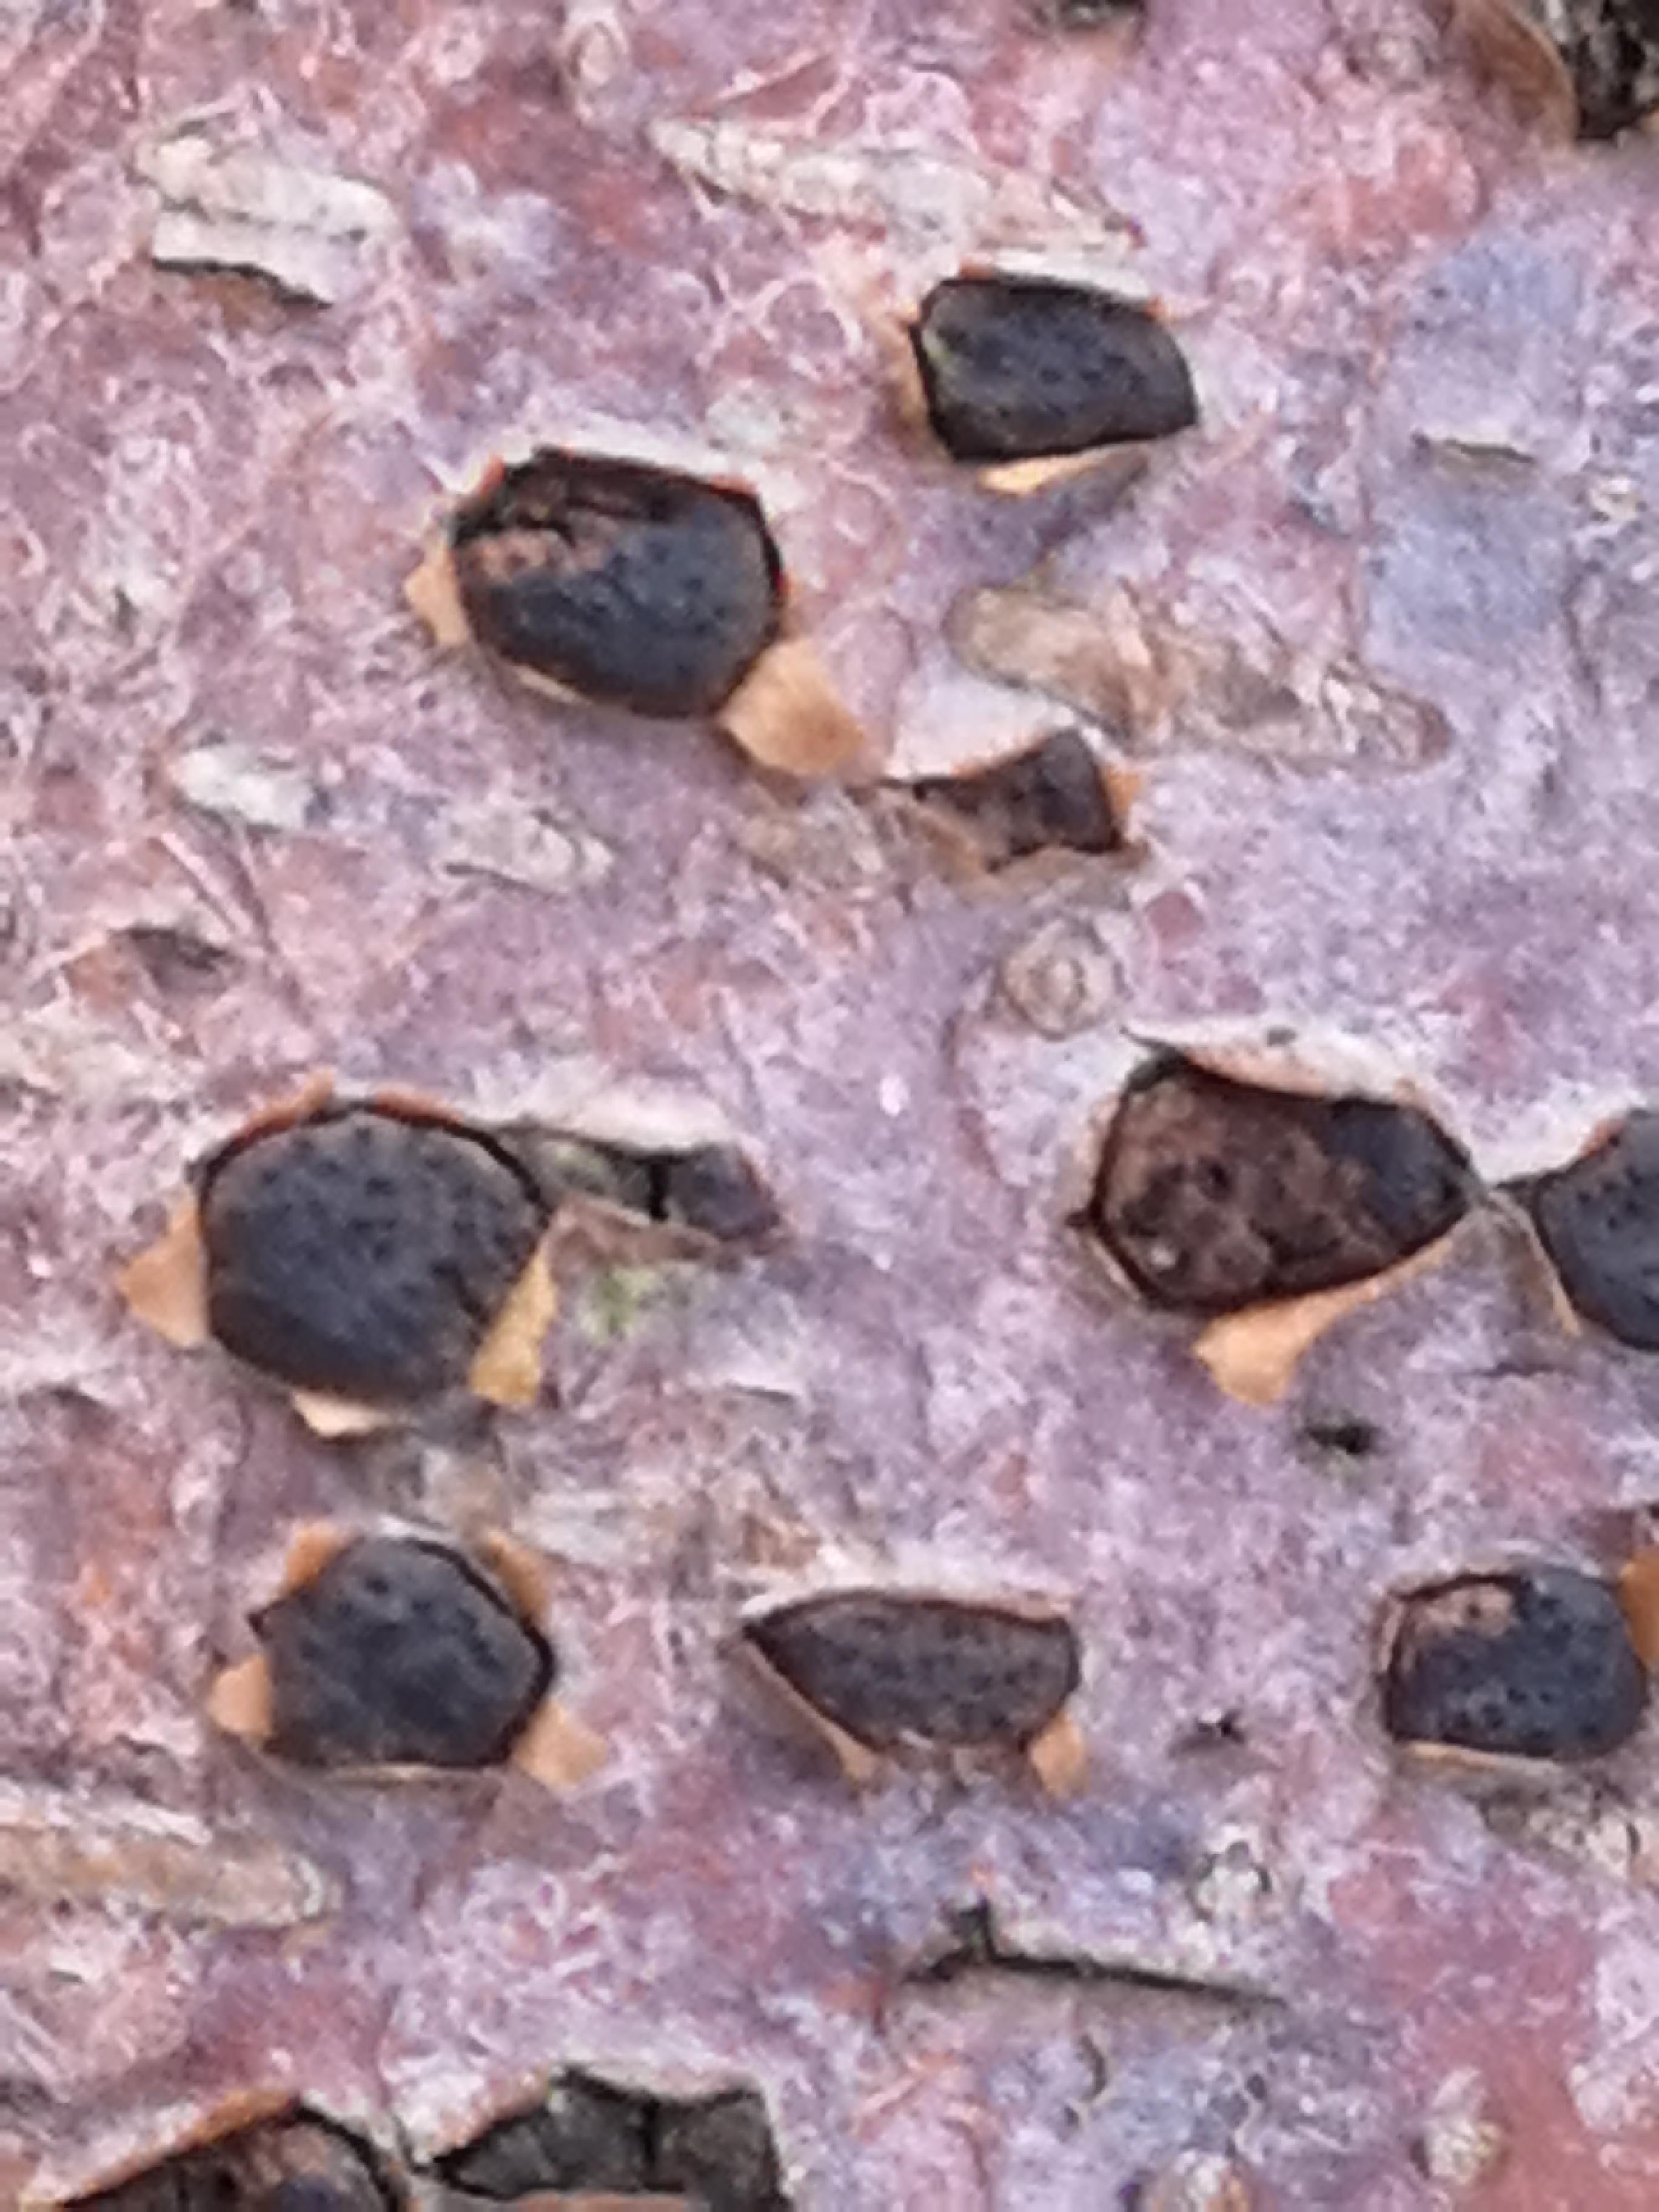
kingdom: Fungi
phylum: Ascomycota
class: Sordariomycetes
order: Xylariales
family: Diatrypaceae
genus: Diatrype
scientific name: Diatrype disciformis
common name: kant-kulskorpe
